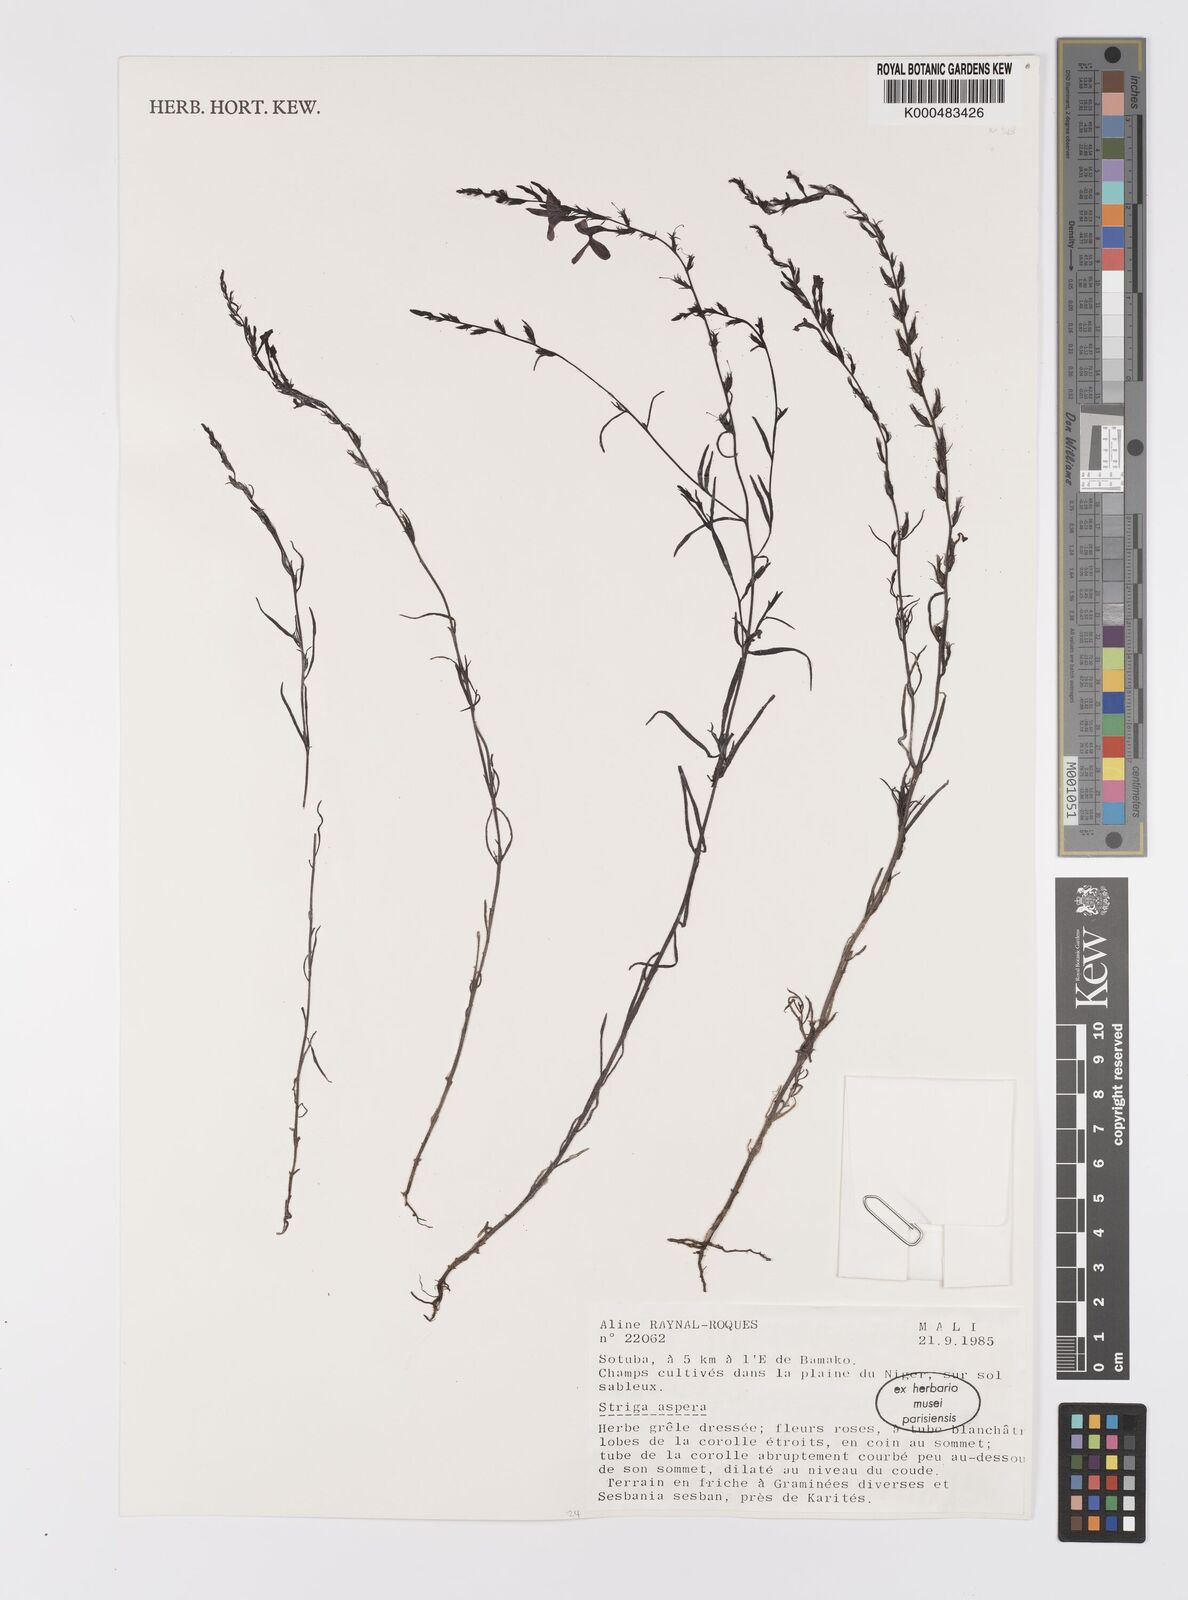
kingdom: Plantae
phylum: Tracheophyta
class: Magnoliopsida
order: Lamiales
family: Orobanchaceae
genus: Striga
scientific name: Striga aspera
